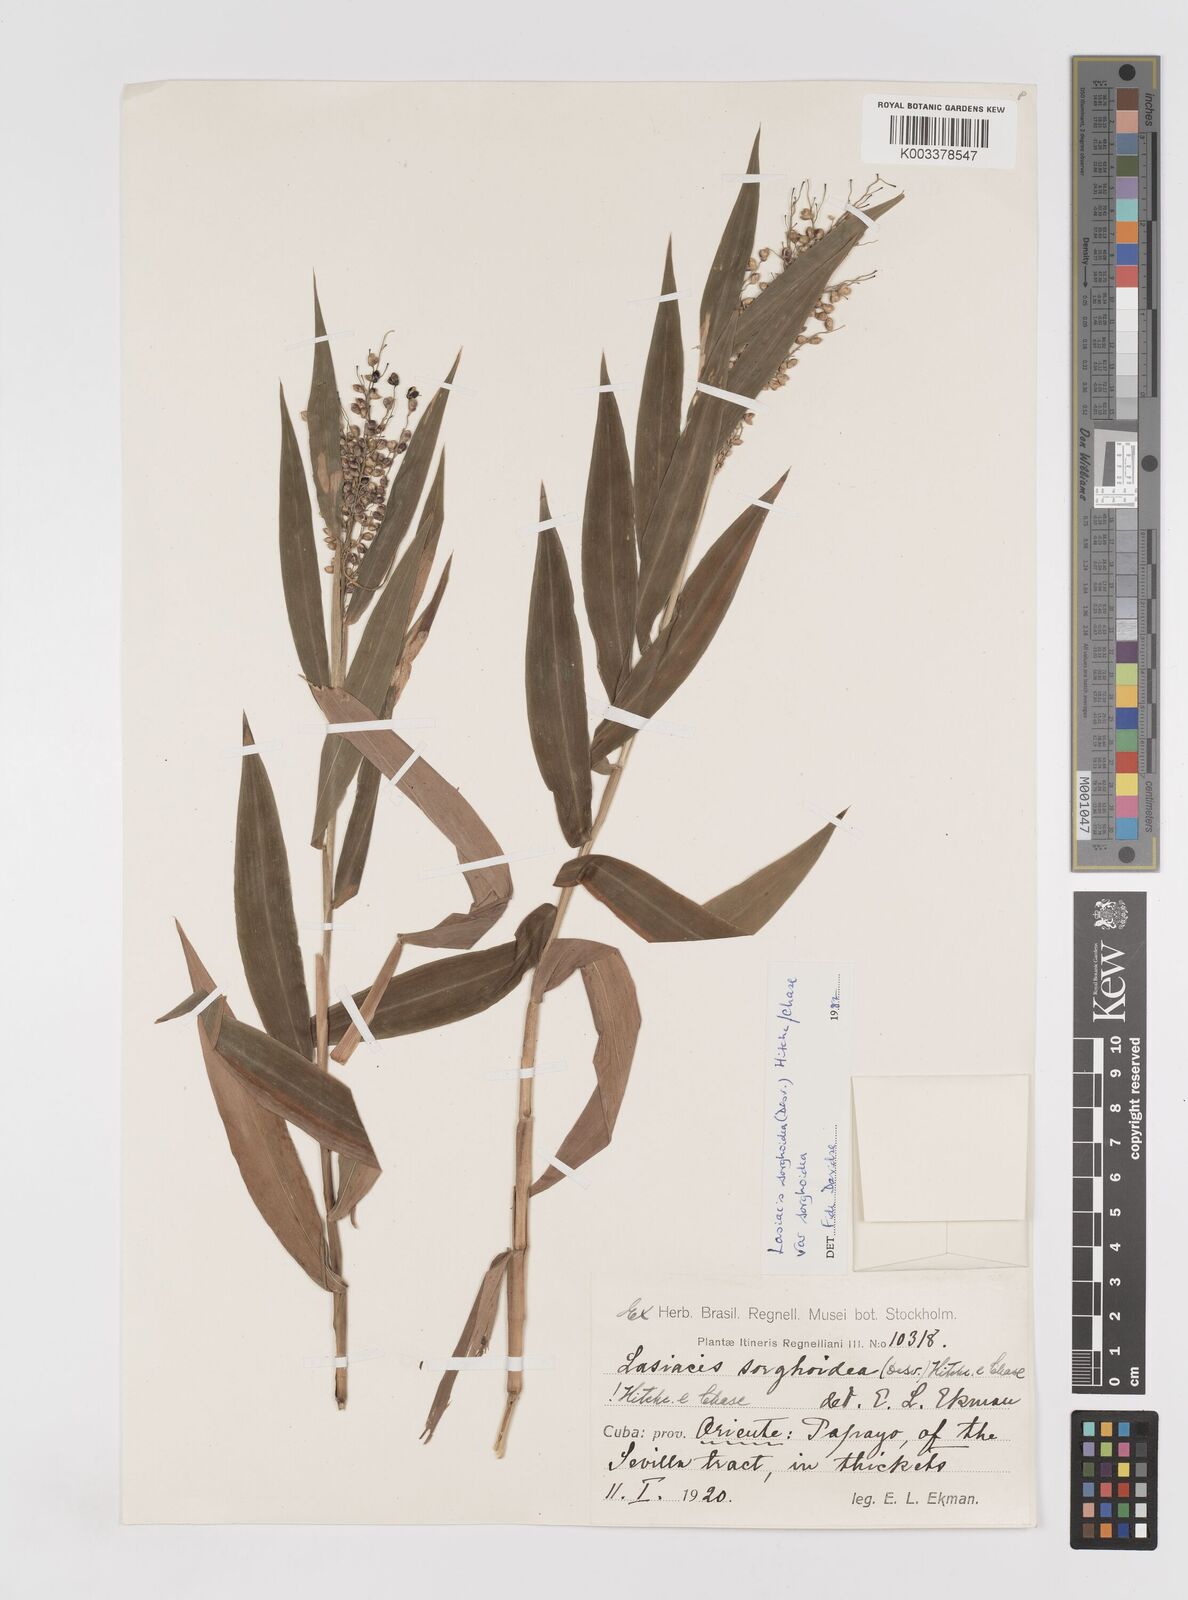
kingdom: Plantae
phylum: Tracheophyta
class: Liliopsida
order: Poales
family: Poaceae
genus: Lasiacis
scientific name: Lasiacis ruscifolia
